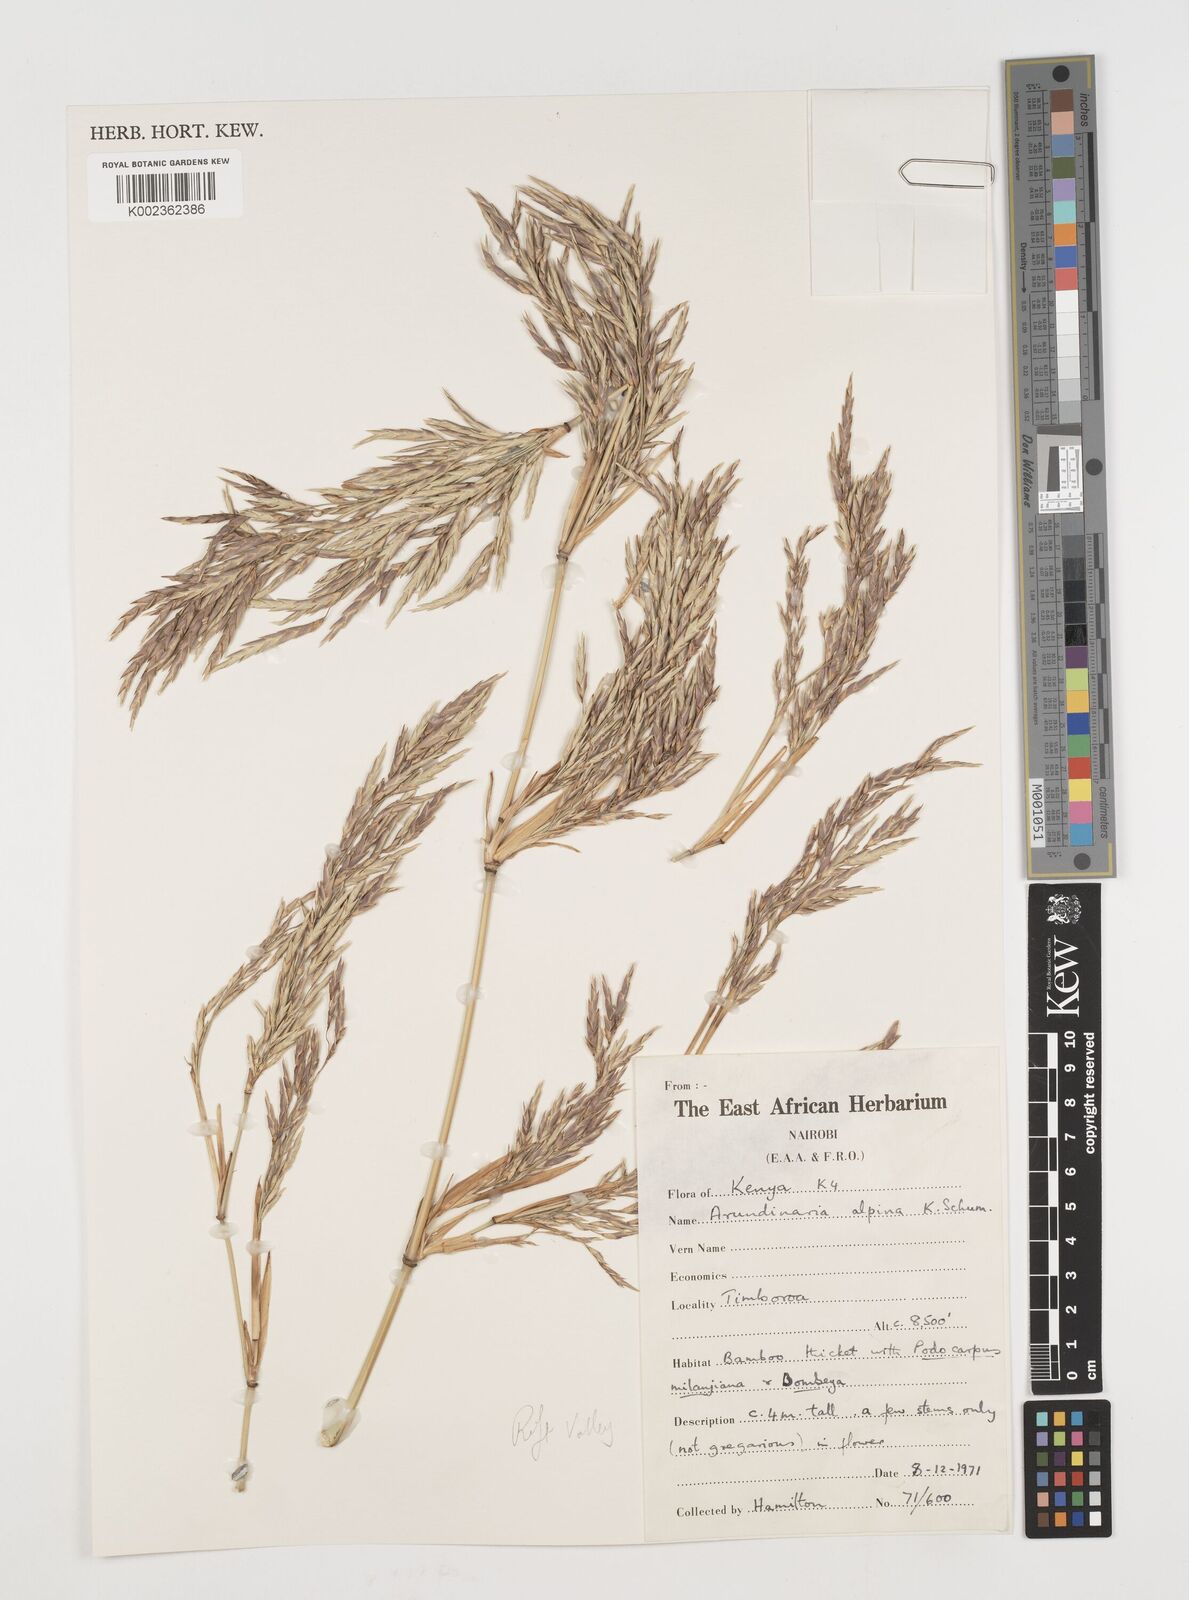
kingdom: Plantae
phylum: Tracheophyta
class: Liliopsida
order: Poales
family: Poaceae
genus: Oldeania
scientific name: Oldeania alpina
